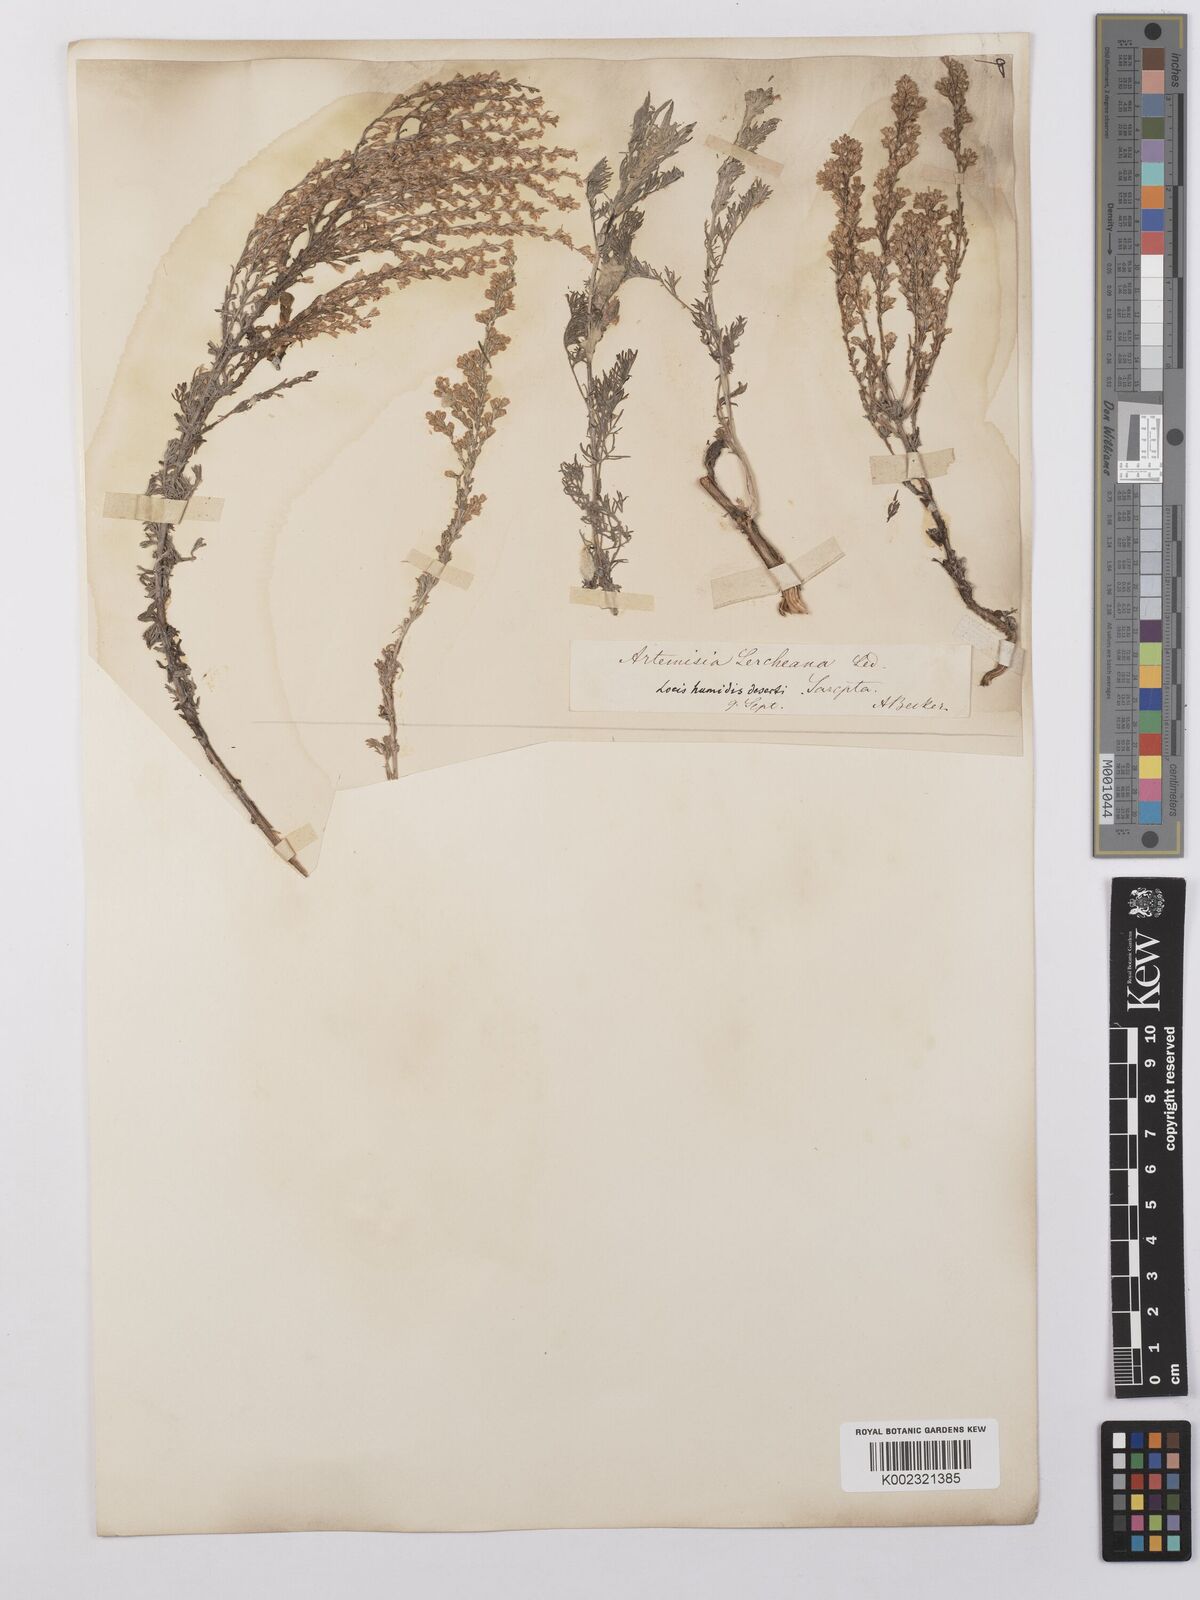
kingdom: Plantae
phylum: Tracheophyta
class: Magnoliopsida
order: Asterales
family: Asteraceae
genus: Artemisia
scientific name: Artemisia pauciflora
